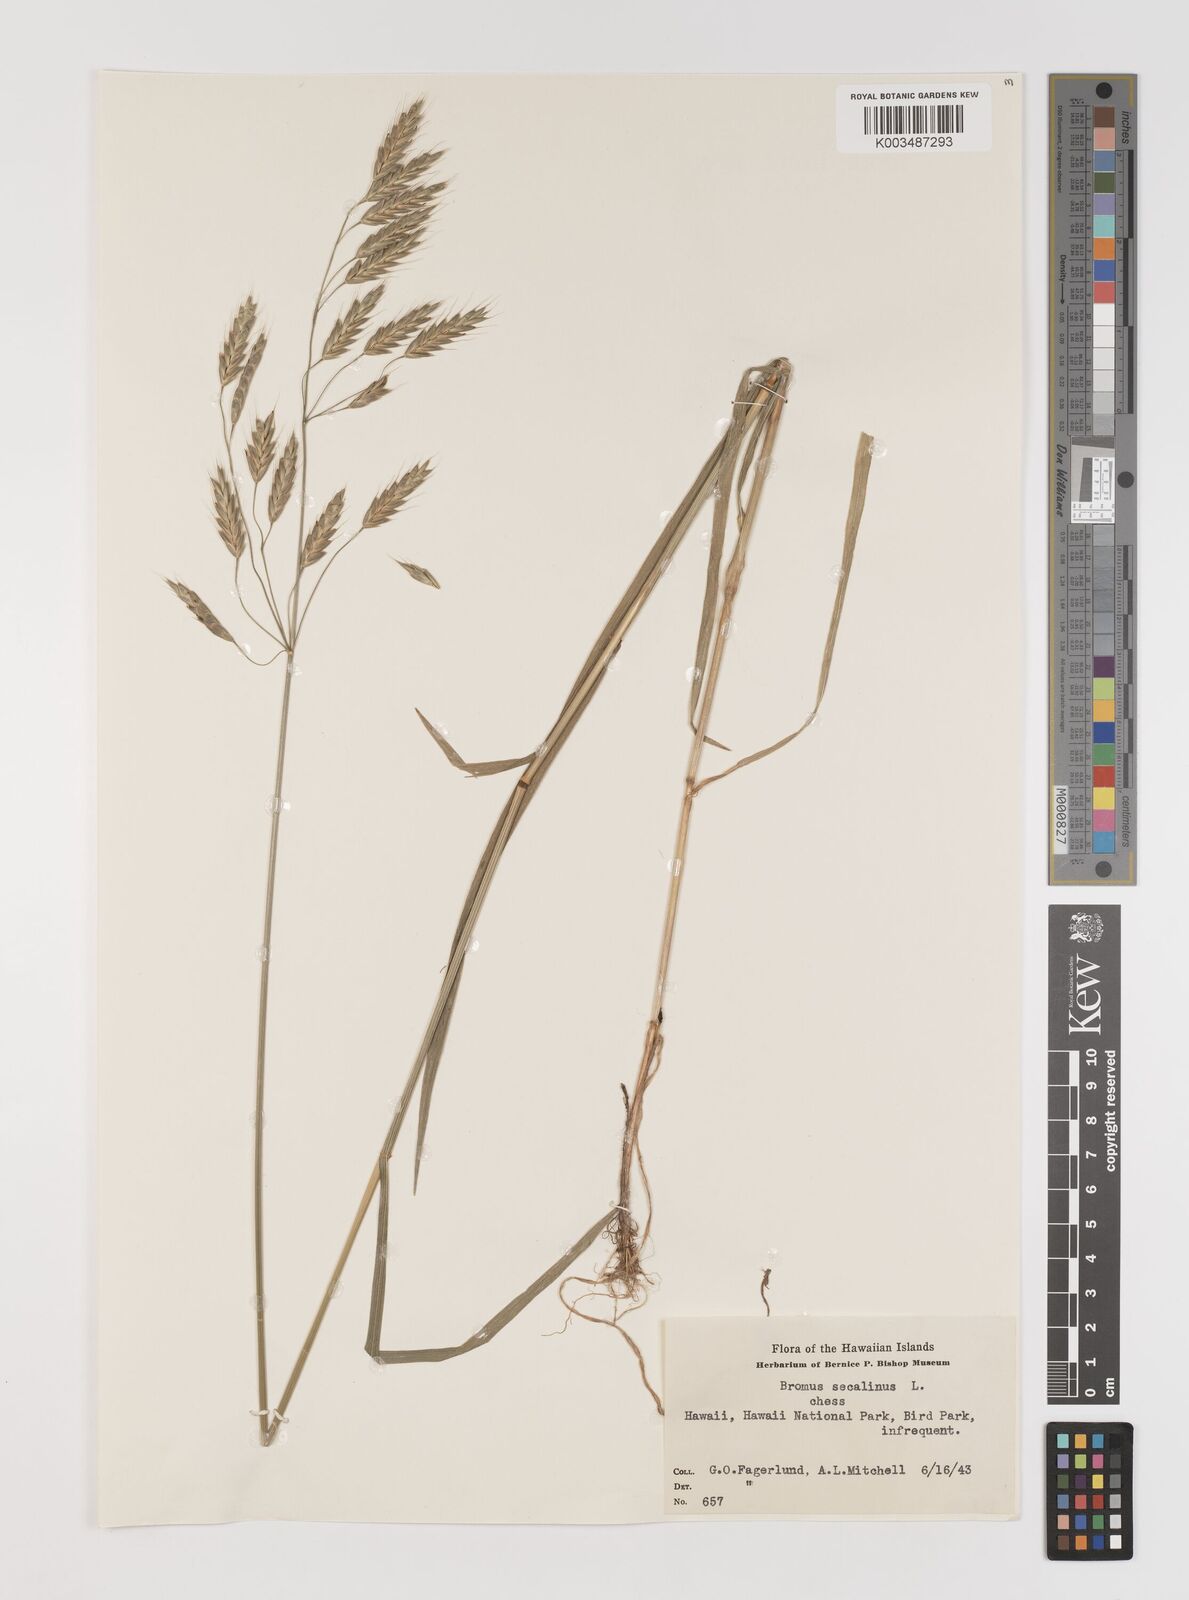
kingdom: Plantae
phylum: Tracheophyta
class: Liliopsida
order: Poales
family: Poaceae
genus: Bromus
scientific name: Bromus secalinus
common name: Rye brome
